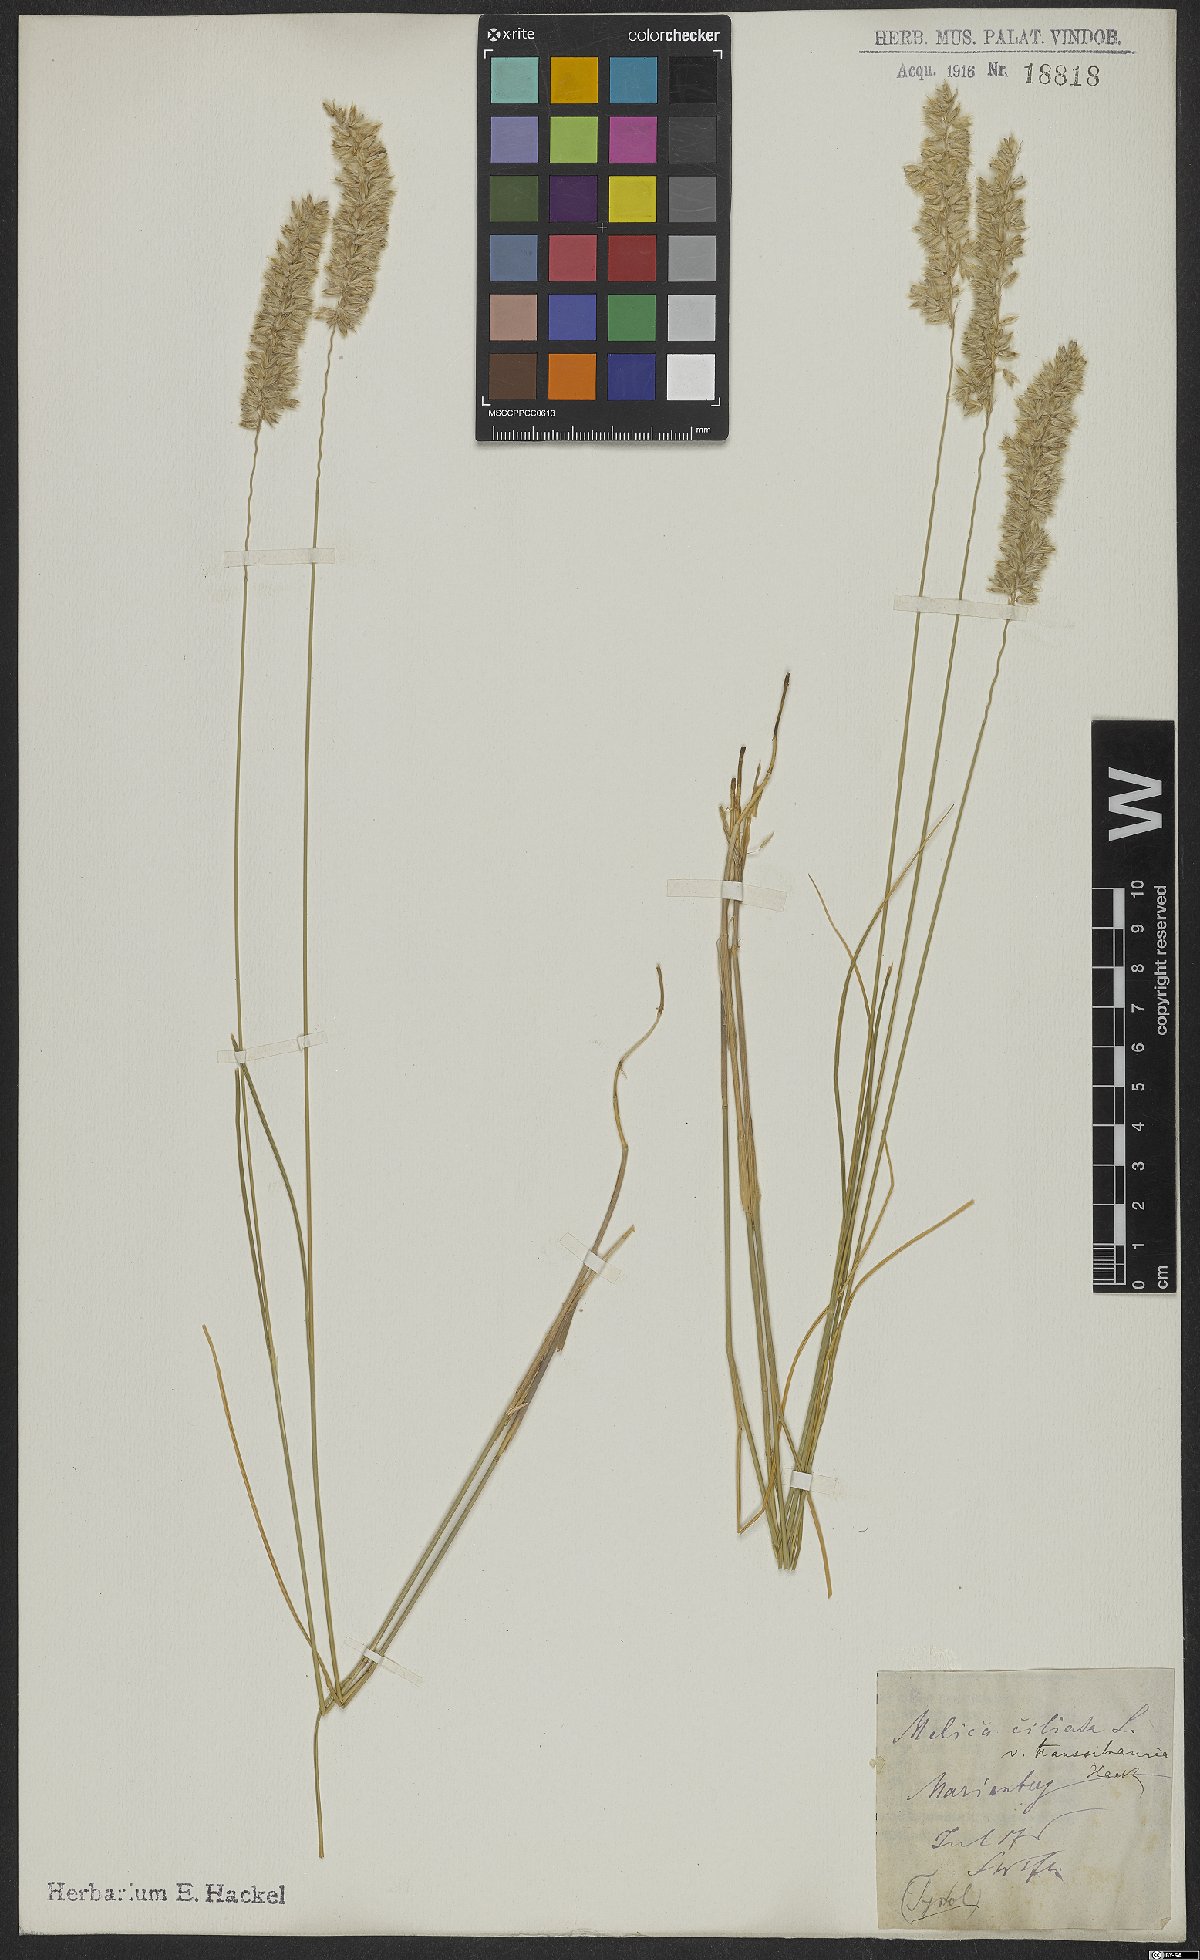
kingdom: Plantae
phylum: Tracheophyta
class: Liliopsida
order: Poales
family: Poaceae
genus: Melica
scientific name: Melica transsilvanica
